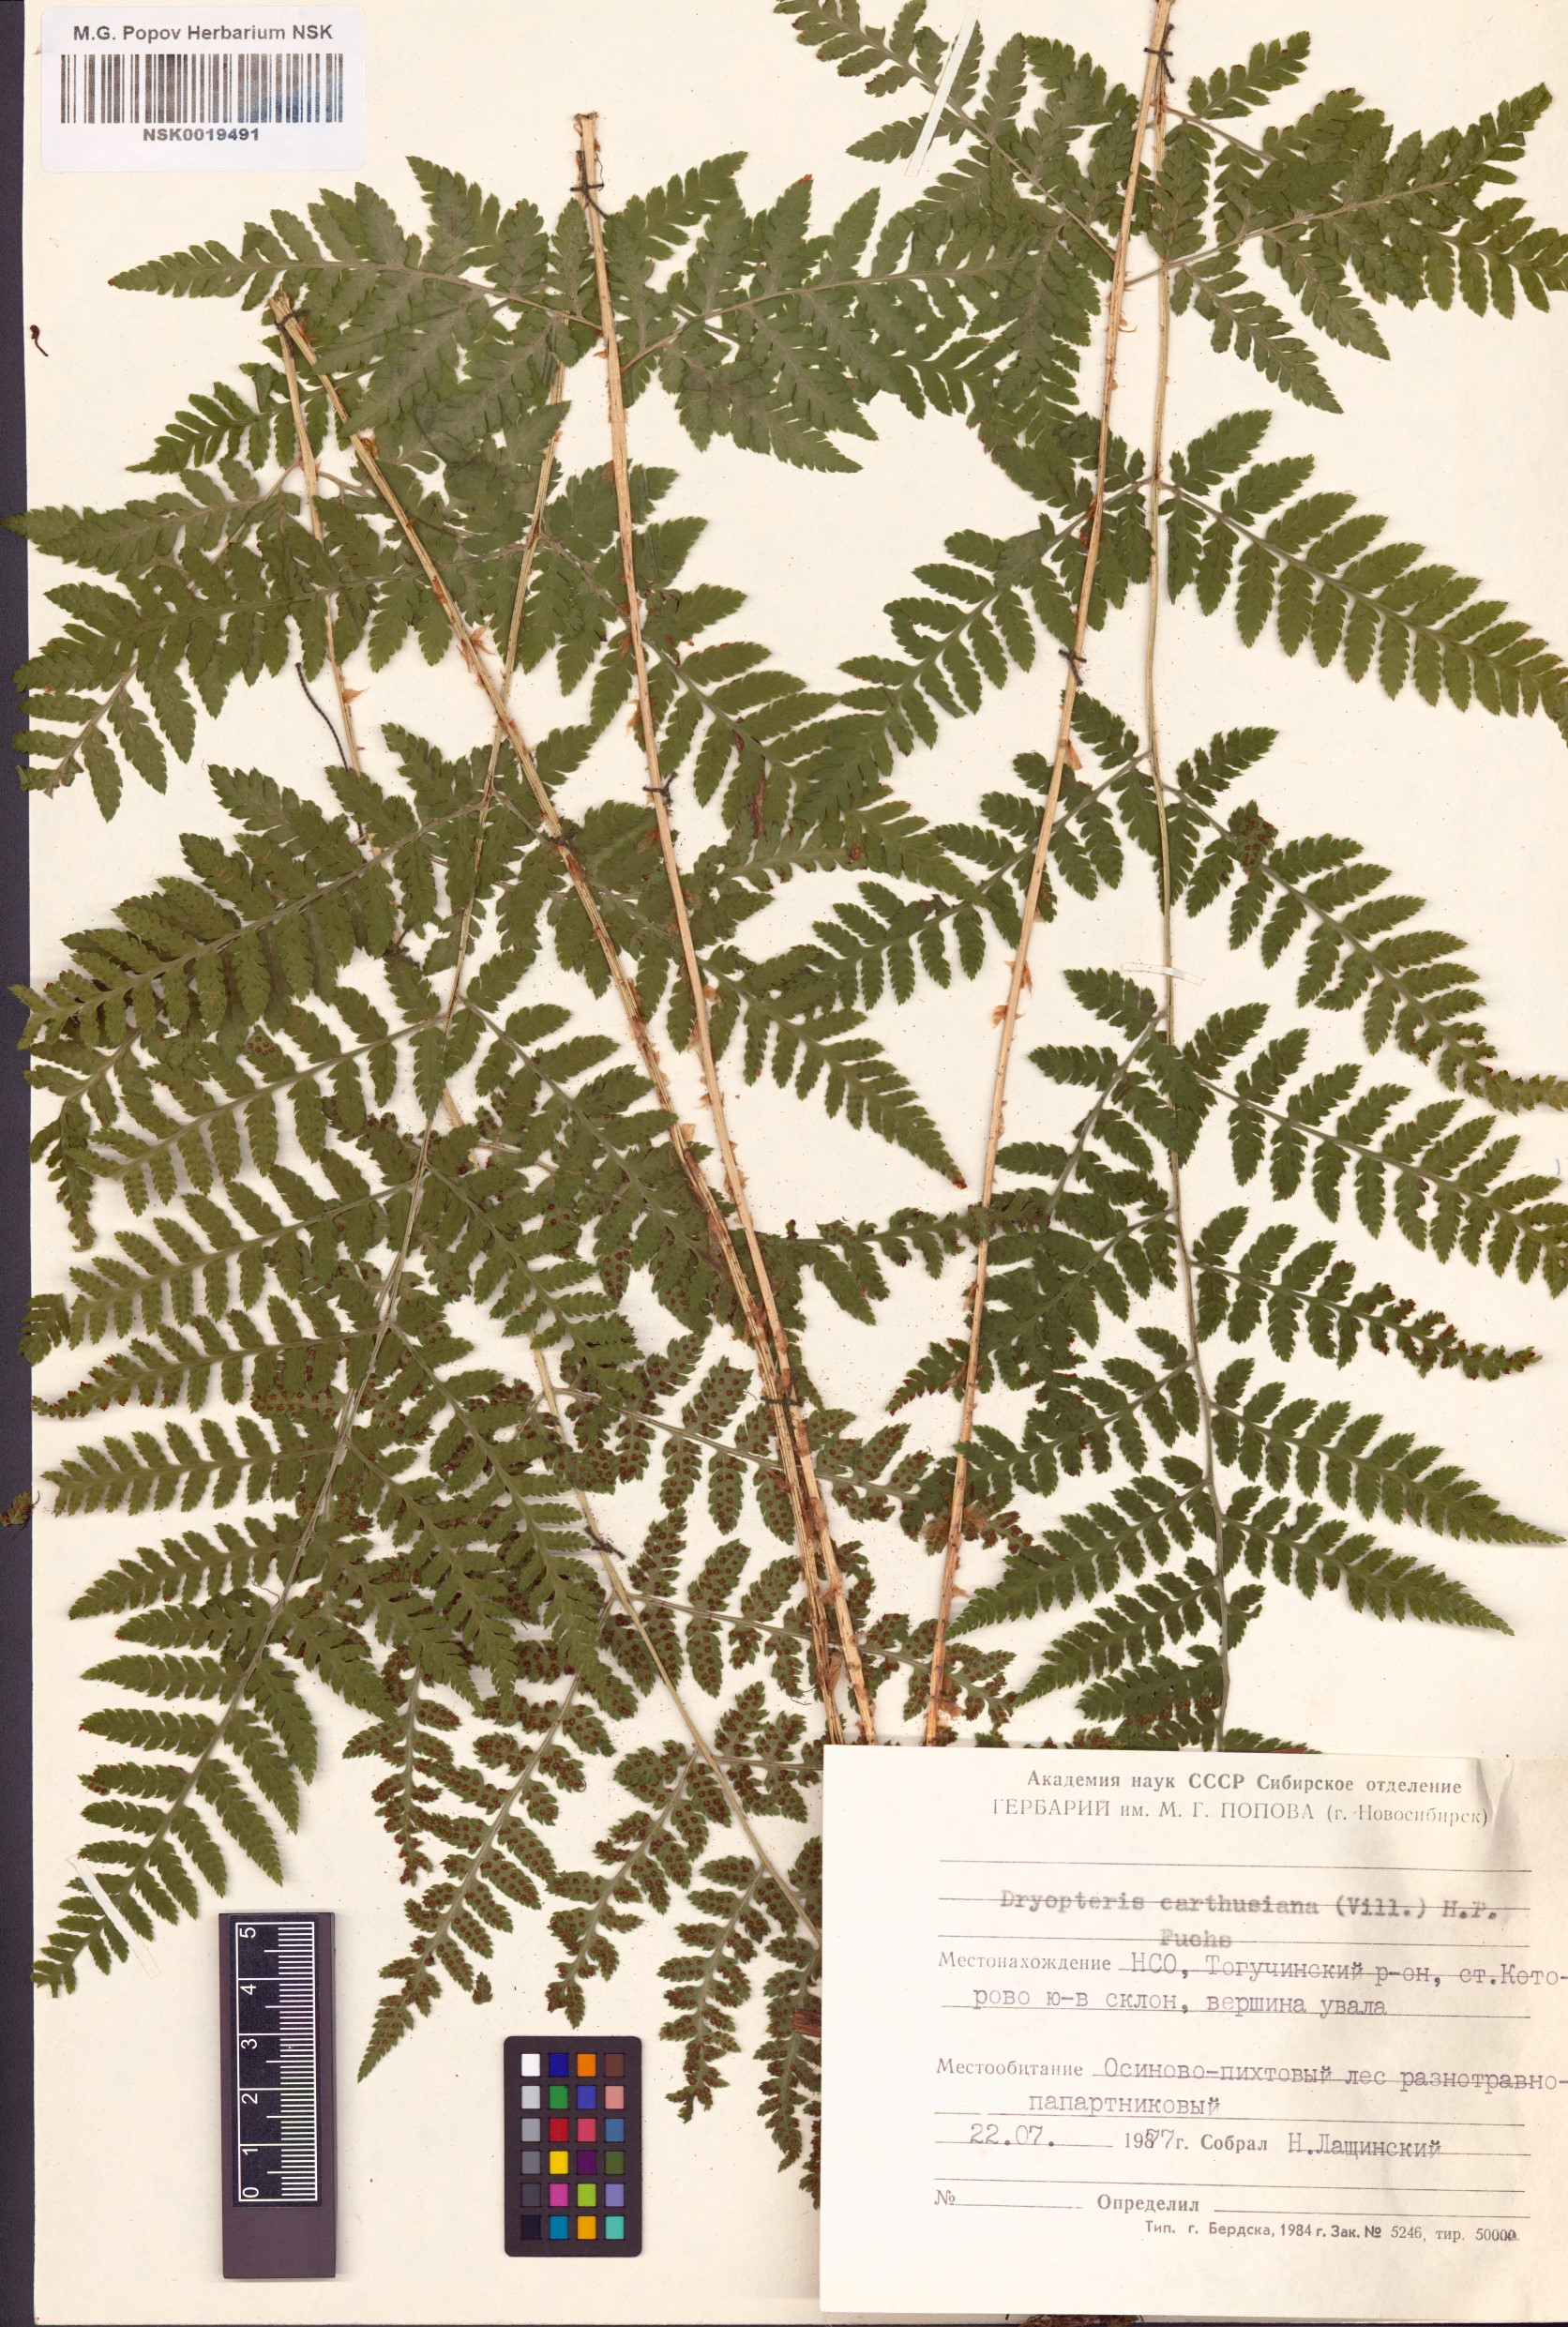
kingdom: Plantae
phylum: Tracheophyta
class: Polypodiopsida
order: Polypodiales
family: Dryopteridaceae
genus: Dryopteris
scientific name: Dryopteris carthusiana
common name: Narrow buckler-fern
